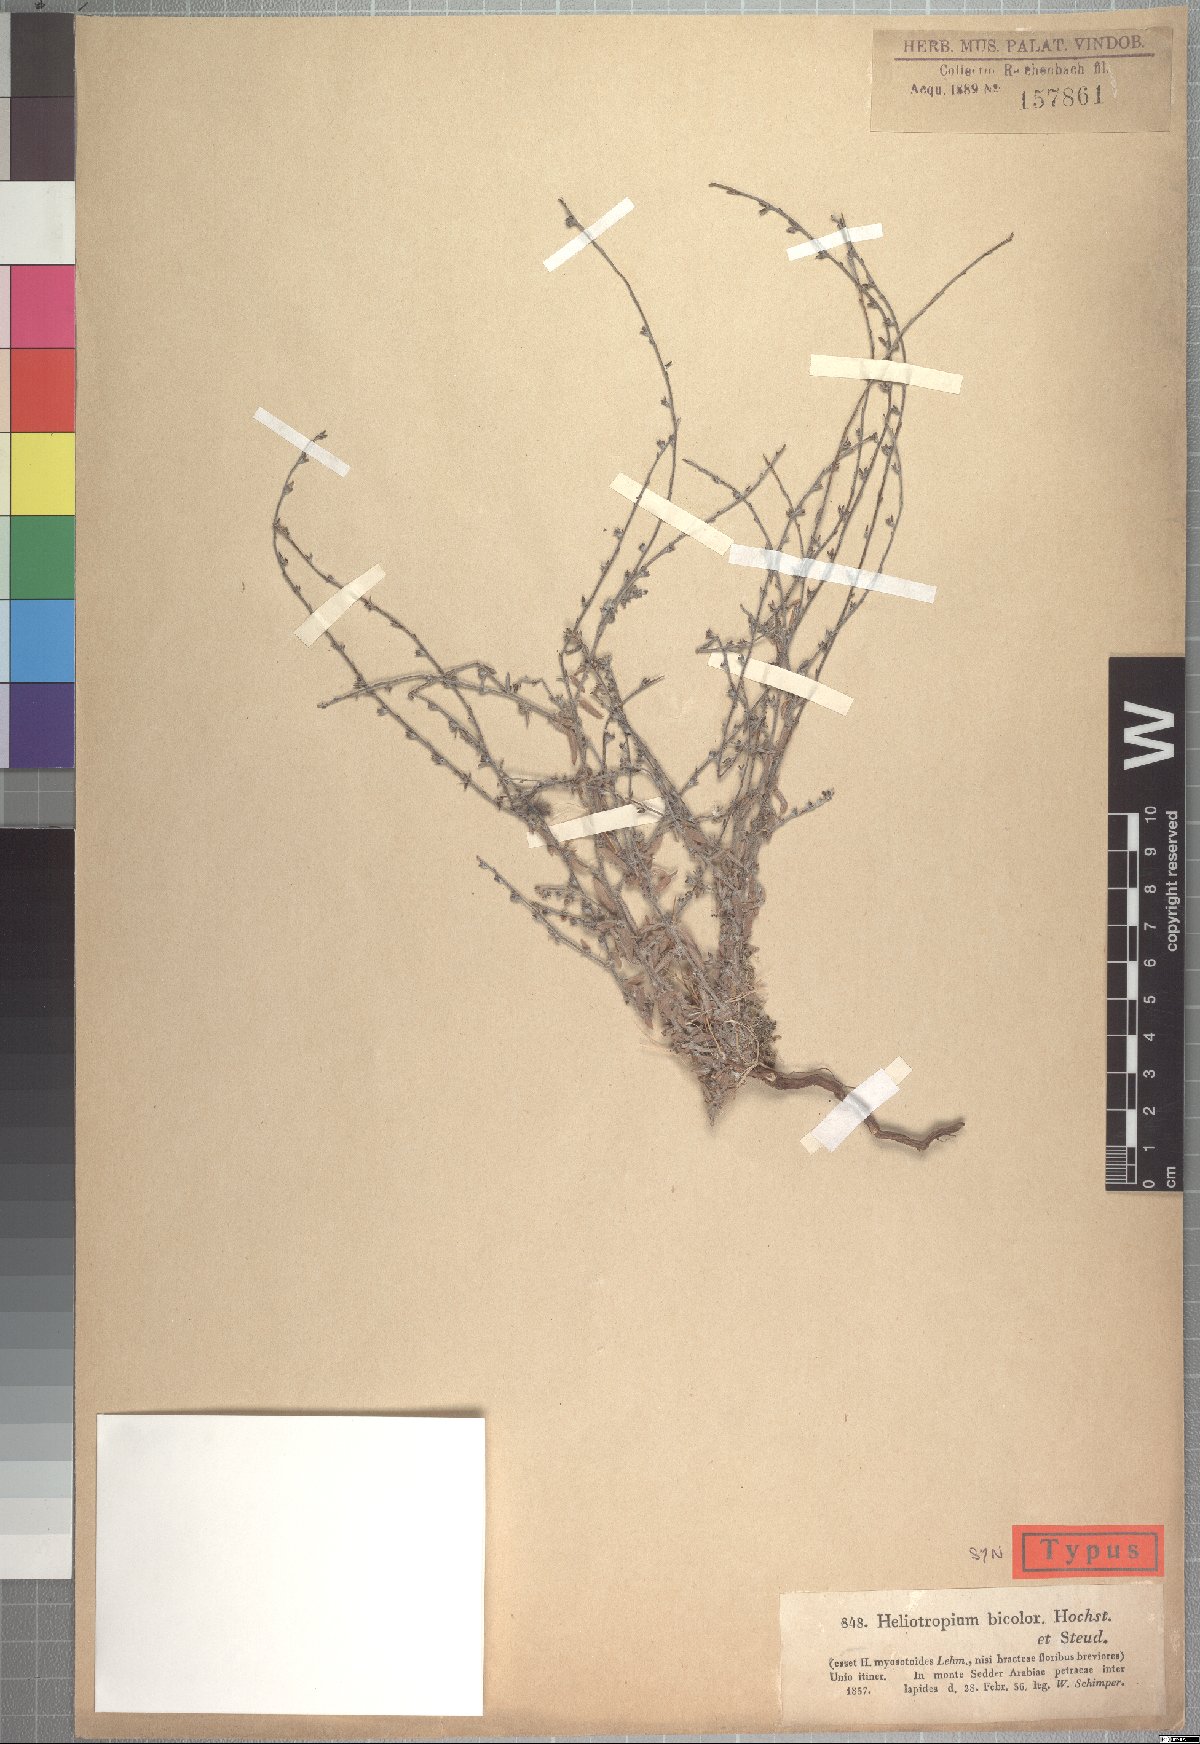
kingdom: Plantae
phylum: Tracheophyta
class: Magnoliopsida
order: Boraginales
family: Heliotropiaceae
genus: Euploca
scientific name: Euploca strigosa
